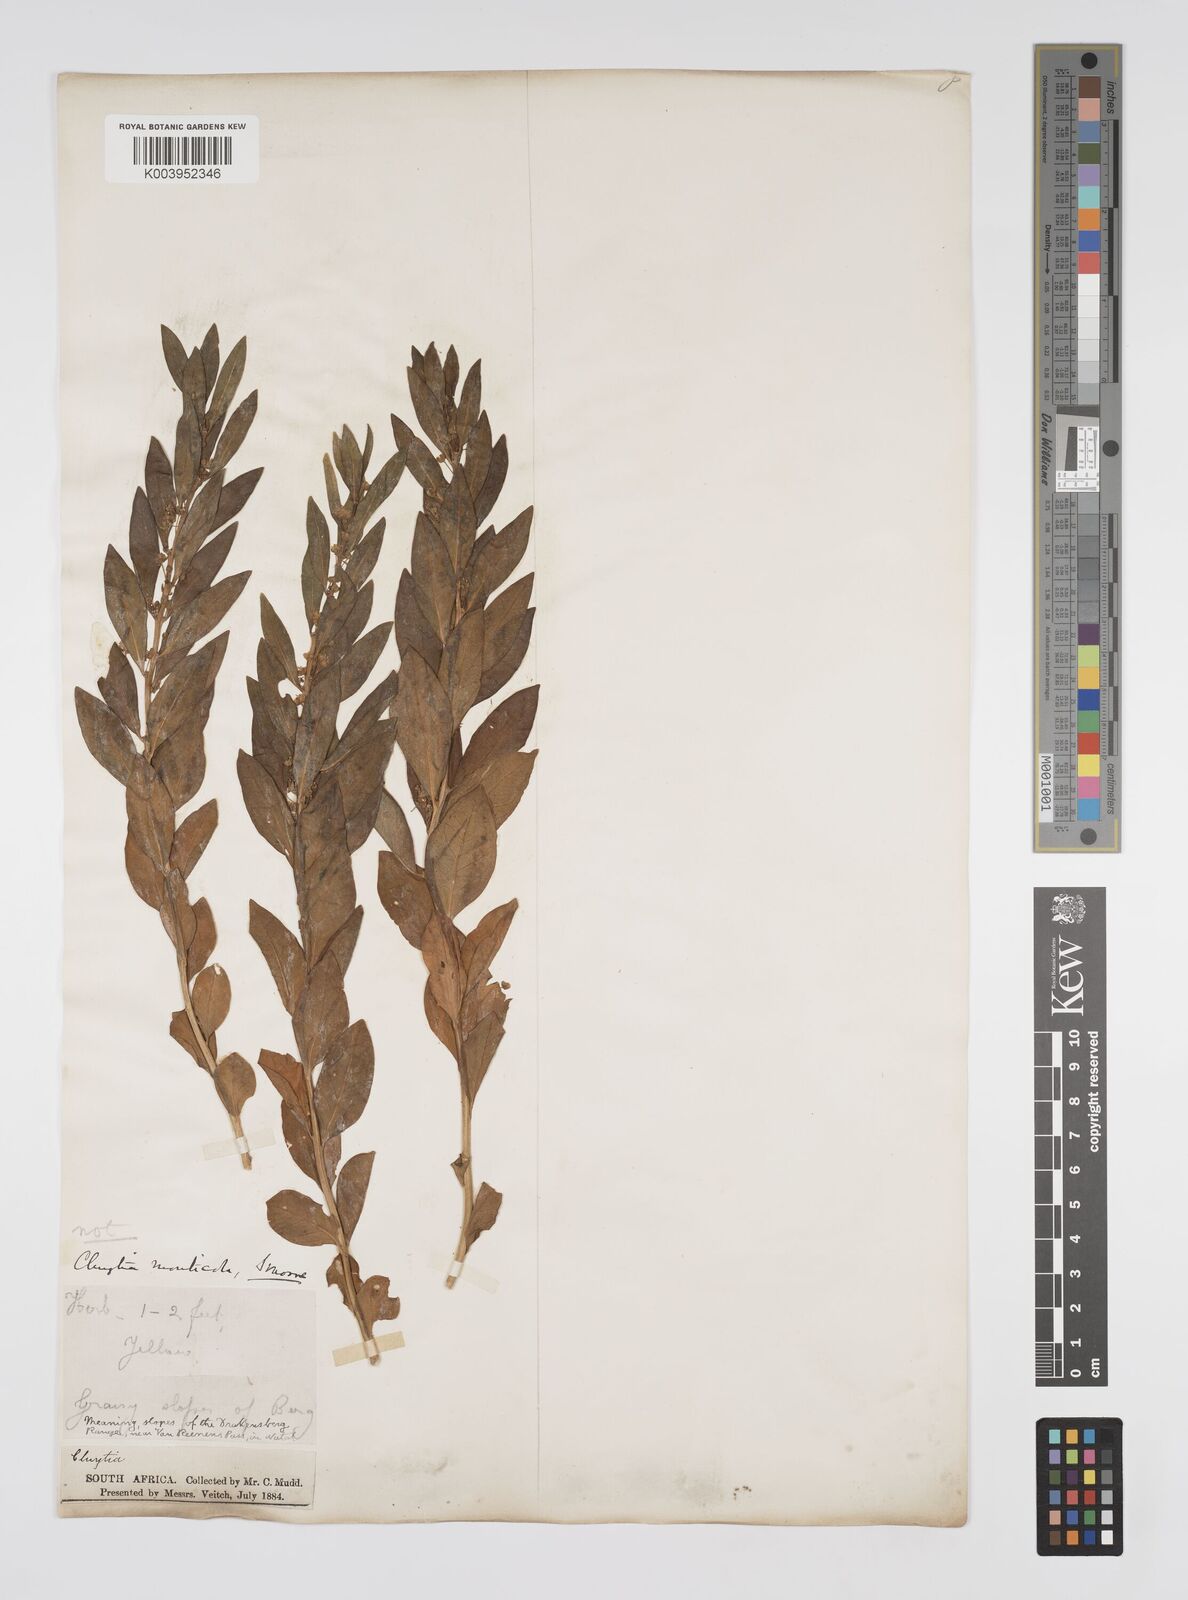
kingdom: Plantae
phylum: Tracheophyta
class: Magnoliopsida
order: Malpighiales
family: Peraceae
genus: Clutia
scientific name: Clutia monticola
